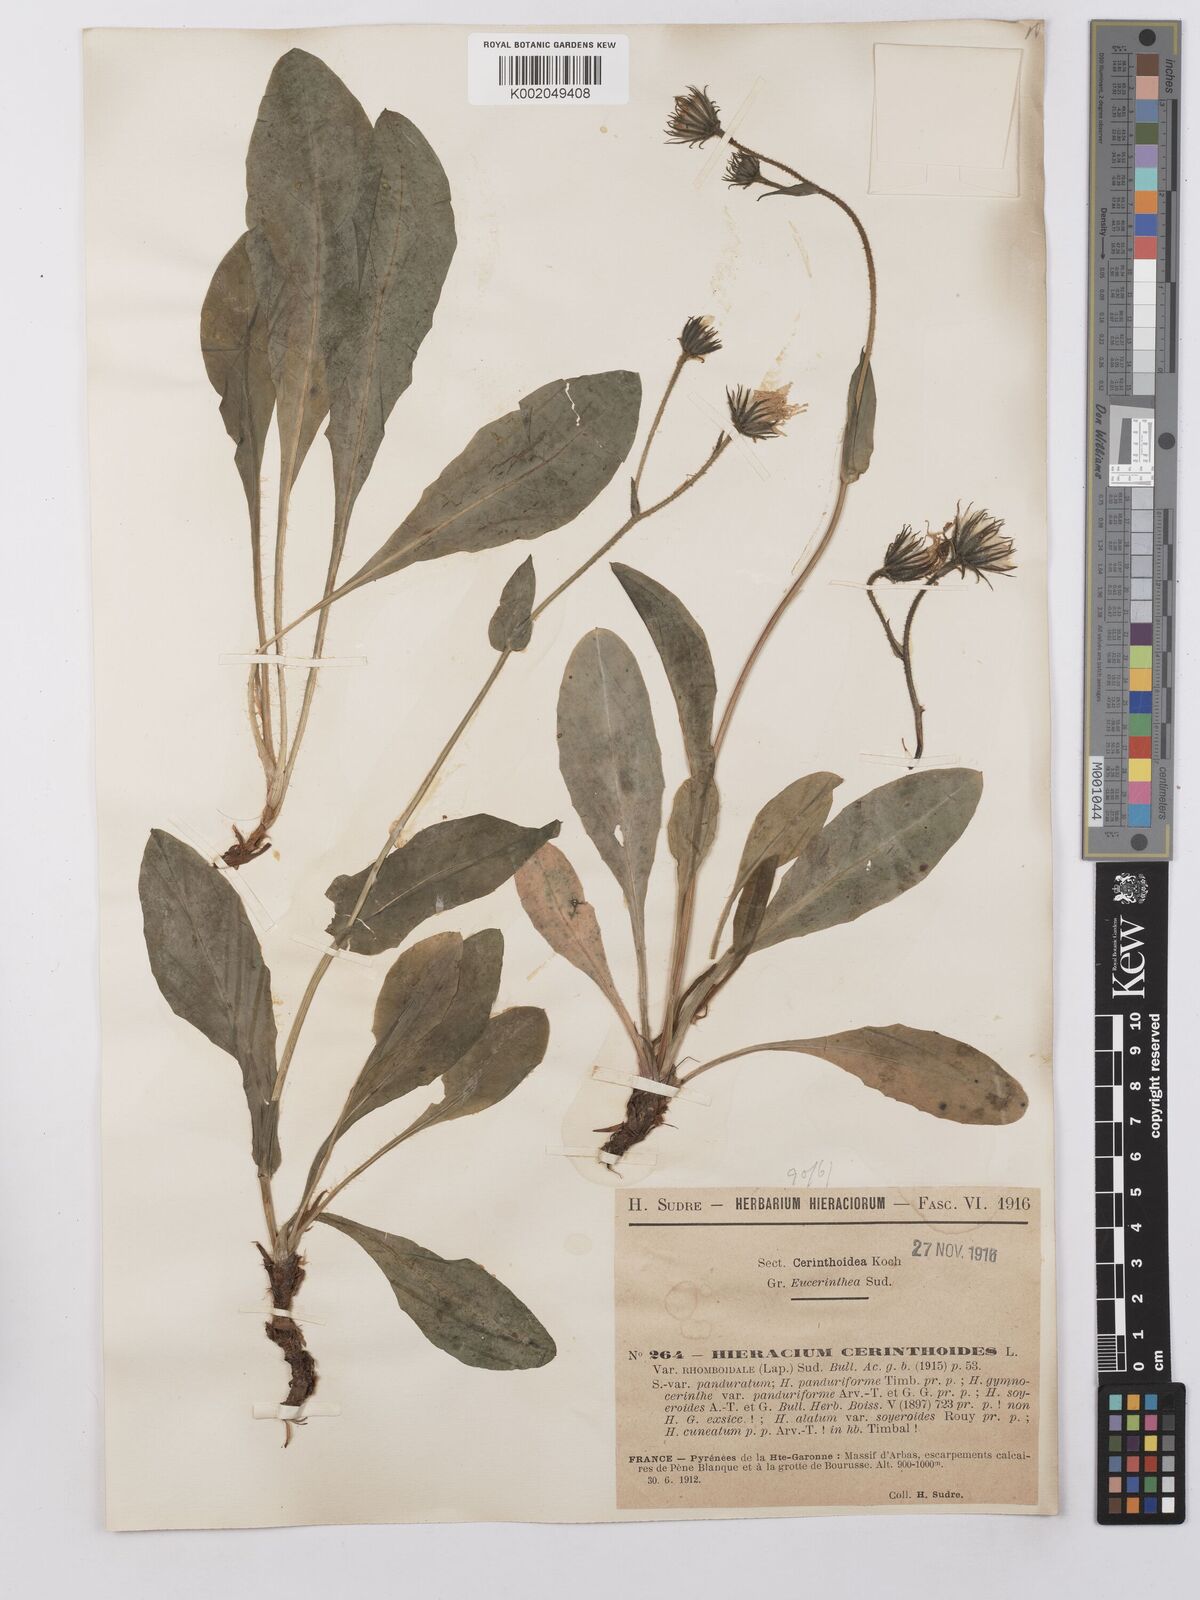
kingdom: Plantae
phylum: Tracheophyta
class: Magnoliopsida
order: Asterales
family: Asteraceae
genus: Hieracium
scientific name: Hieracium cerinthoides
